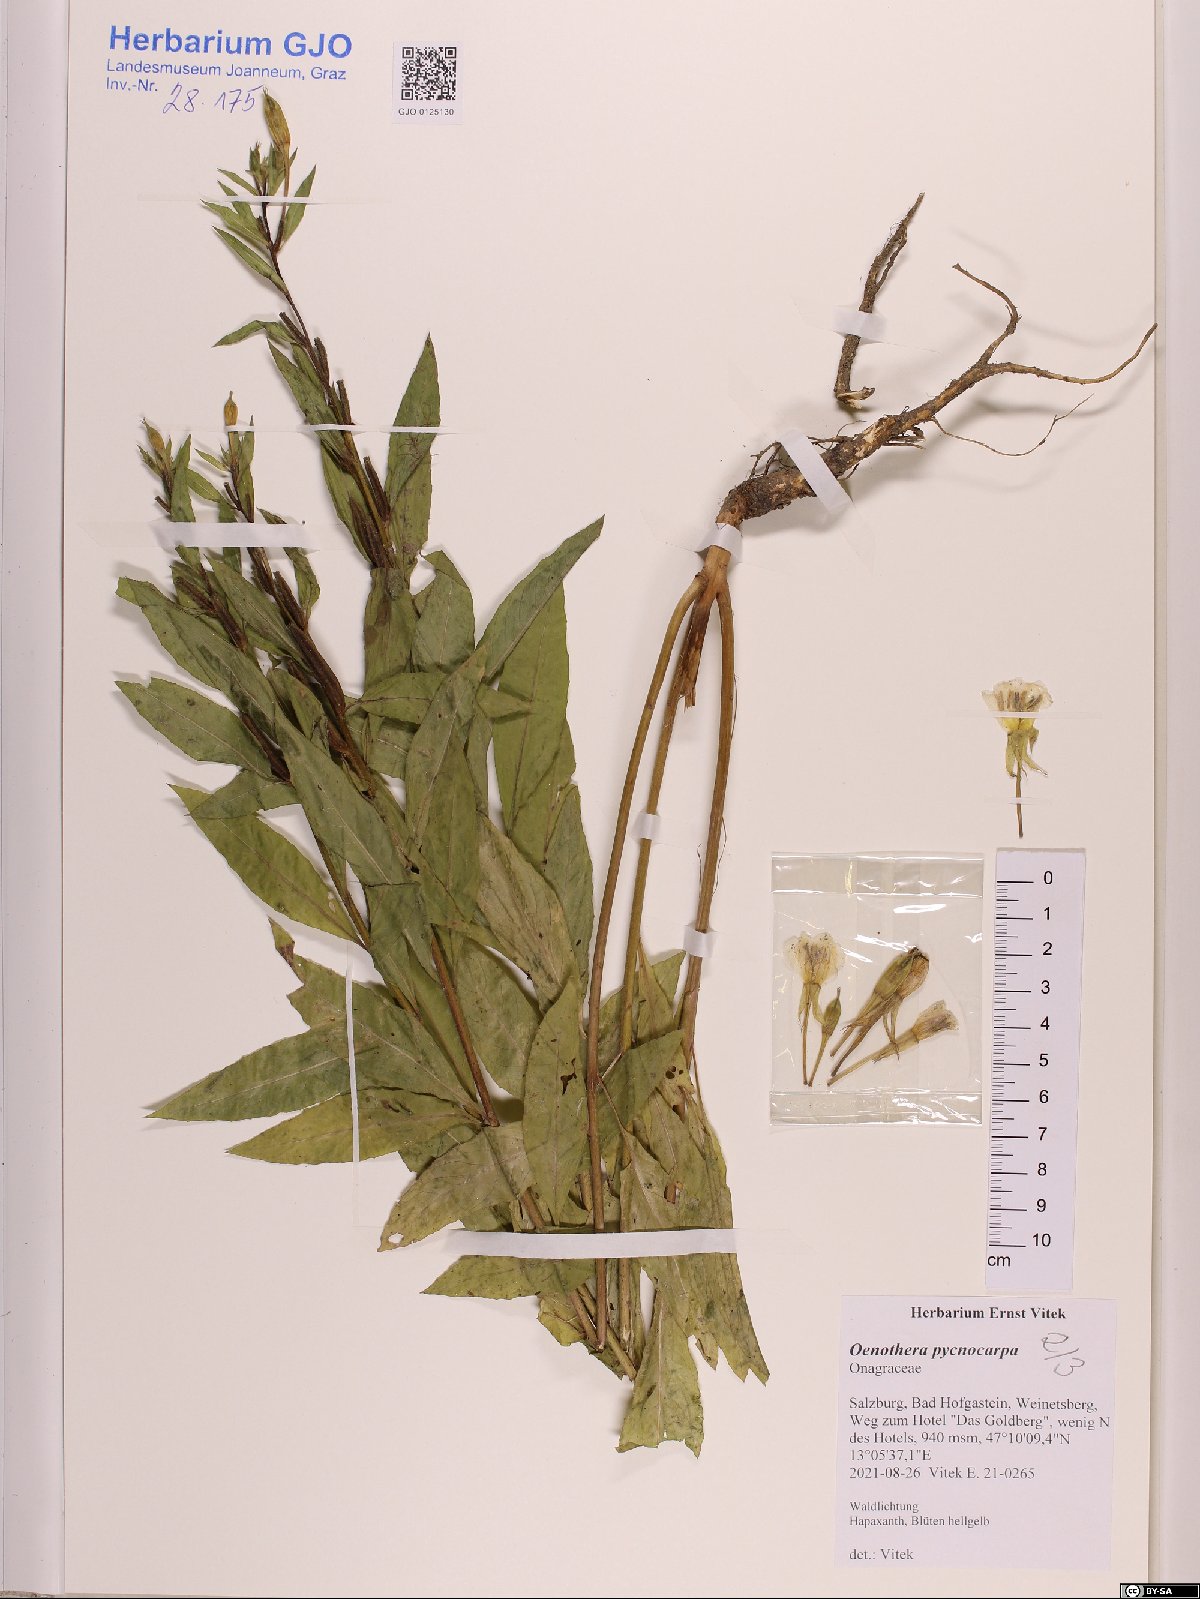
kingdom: Plantae
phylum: Tracheophyta
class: Magnoliopsida
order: Myrtales
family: Onagraceae
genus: Oenothera
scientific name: Oenothera biennis
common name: Common evening-primrose
